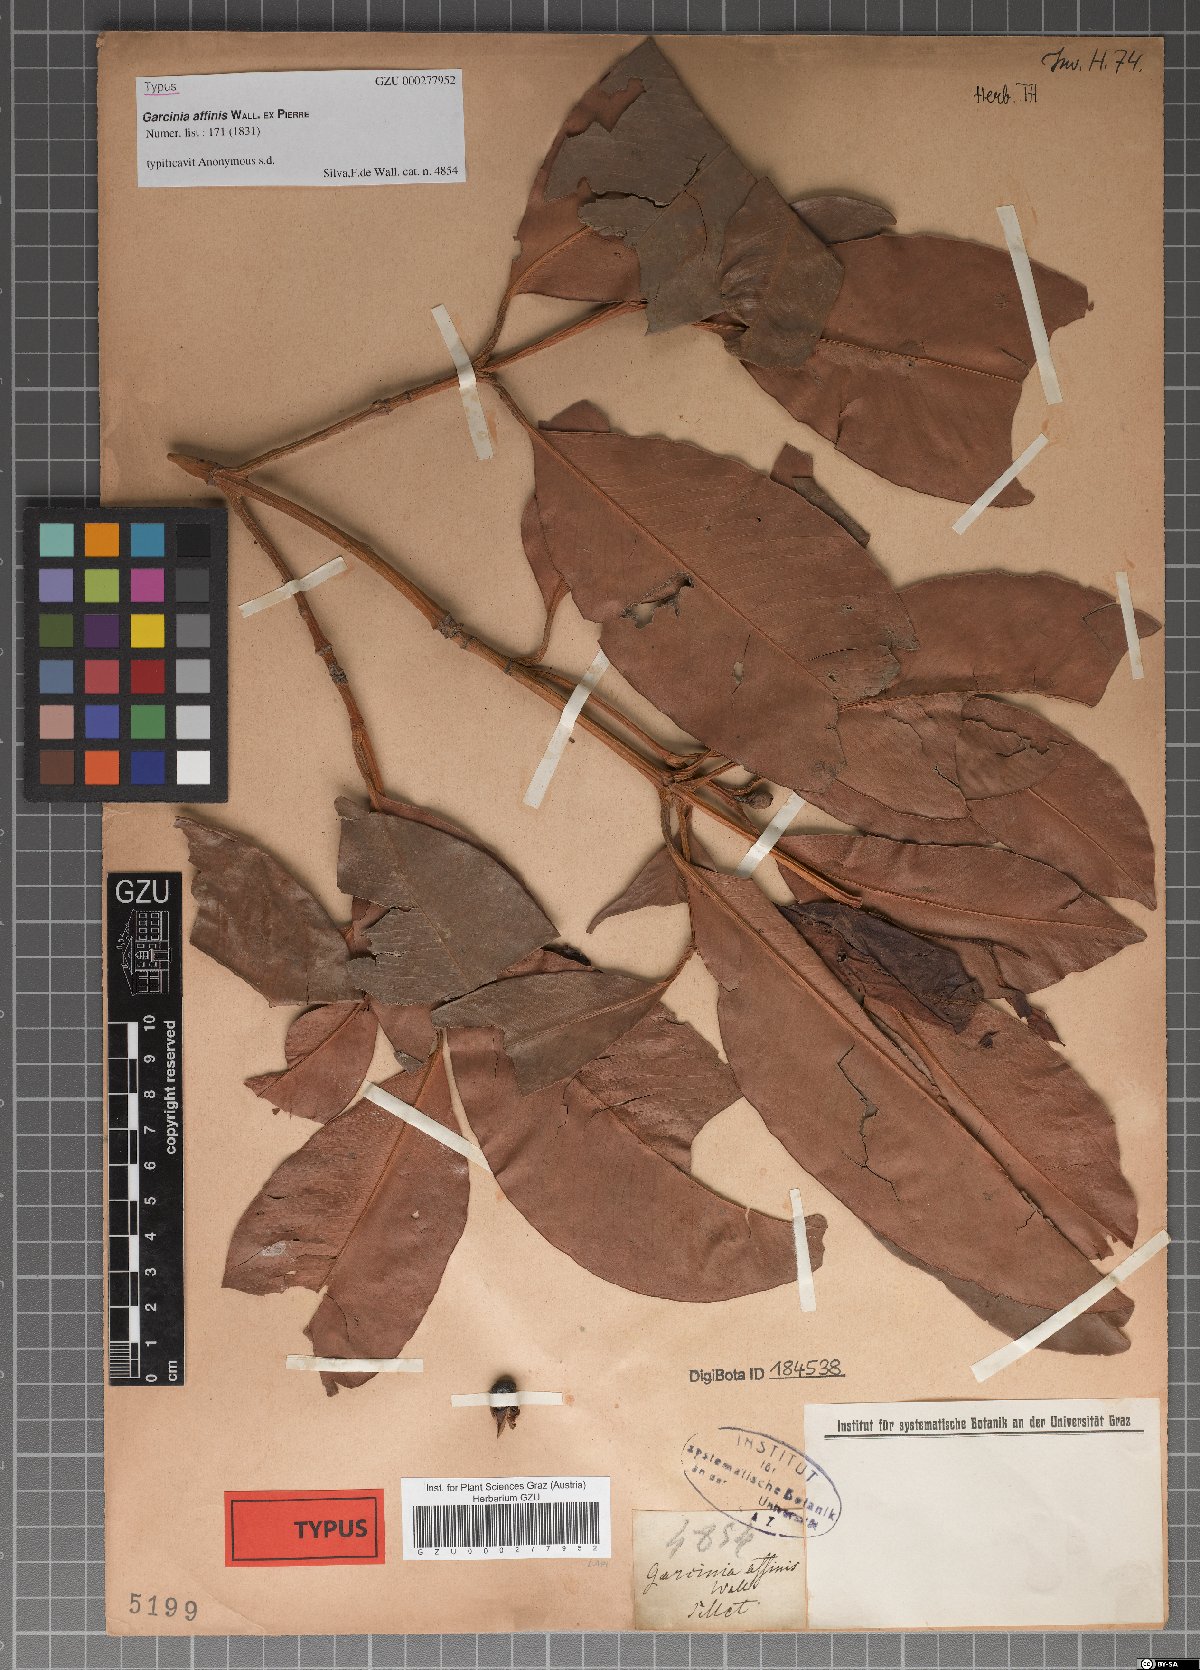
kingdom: Plantae
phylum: Tracheophyta
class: Magnoliopsida
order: Malpighiales
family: Clusiaceae
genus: Garcinia
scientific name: Garcinia celebica
